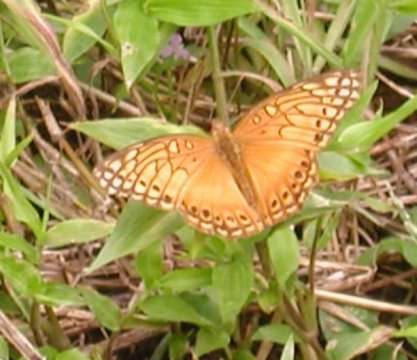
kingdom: Animalia
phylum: Arthropoda
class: Insecta
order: Lepidoptera
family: Nymphalidae
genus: Euptoieta
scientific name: Euptoieta hegesia
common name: Mexican Fritillary
